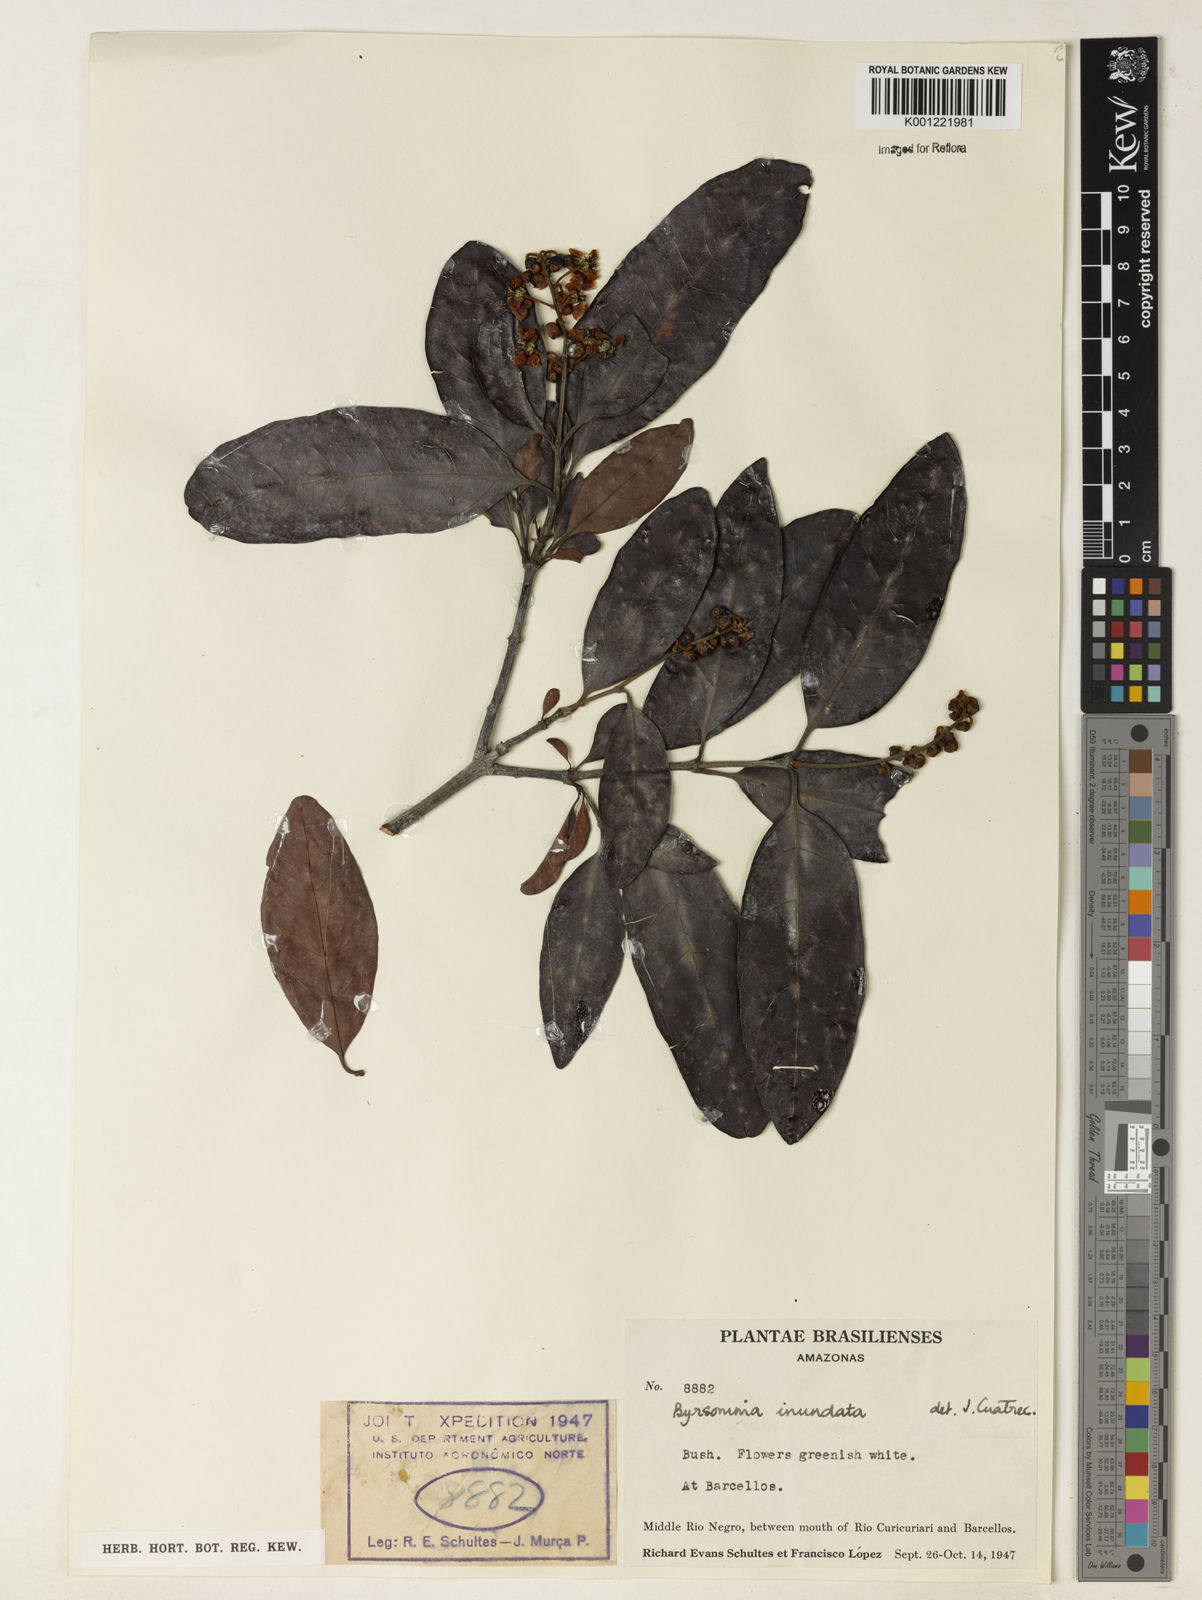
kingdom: Plantae
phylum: Tracheophyta
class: Magnoliopsida
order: Malpighiales
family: Malpighiaceae
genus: Byrsonima
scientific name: Byrsonima japurensis
